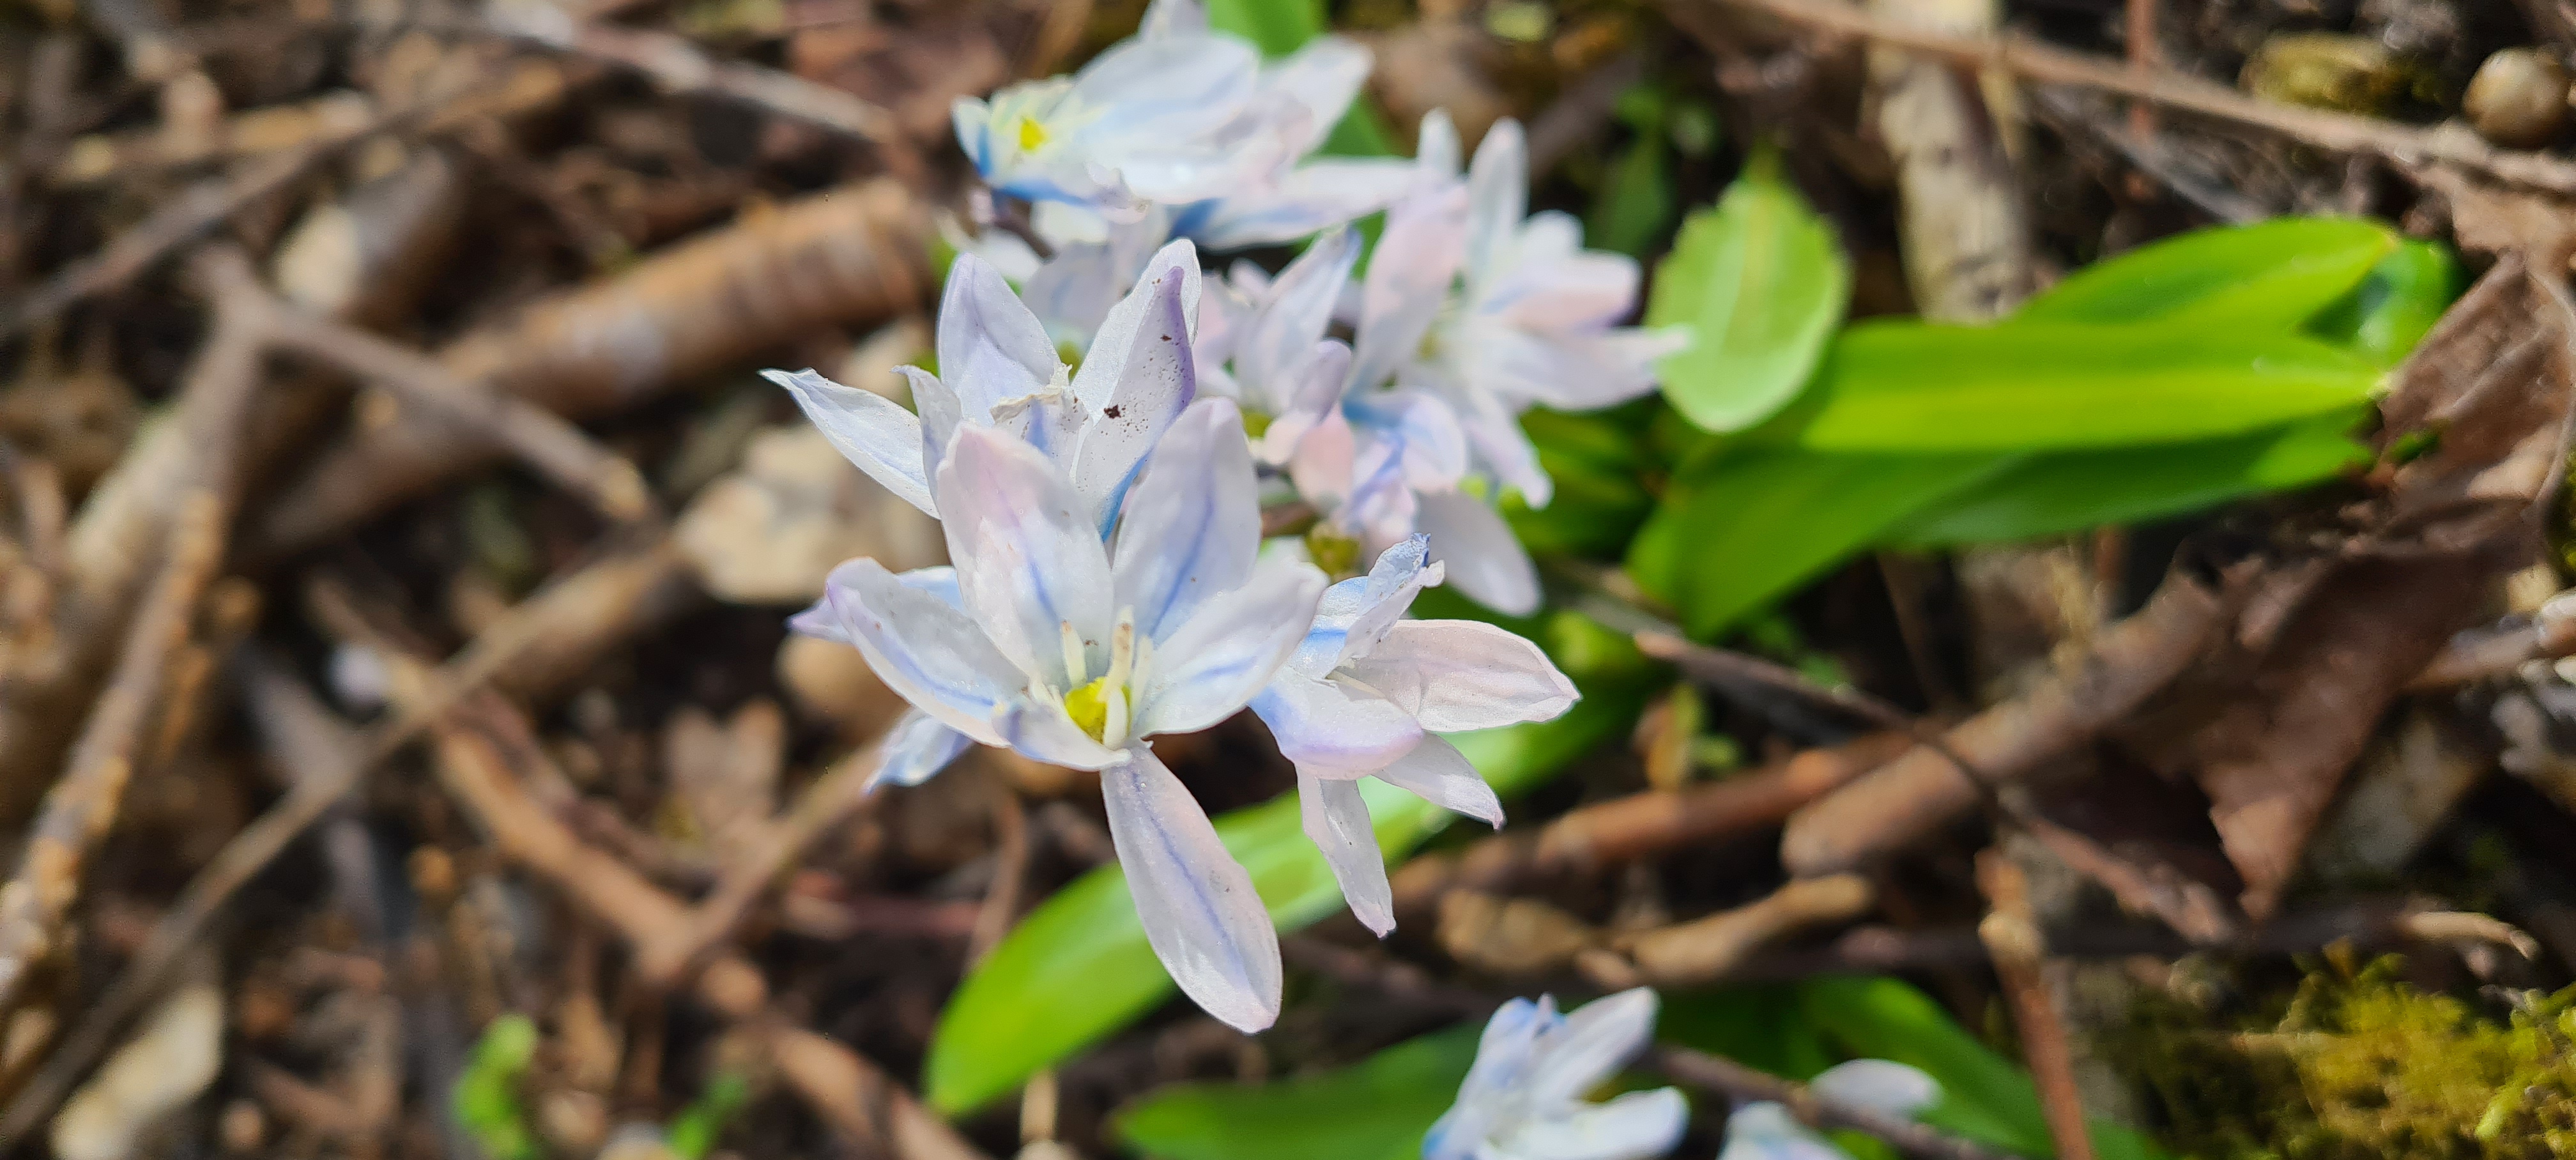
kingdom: Plantae
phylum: Tracheophyta
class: Liliopsida
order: Asparagales
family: Asparagaceae
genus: Scilla
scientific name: Scilla mischtschenkoana
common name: Persisk skilla
